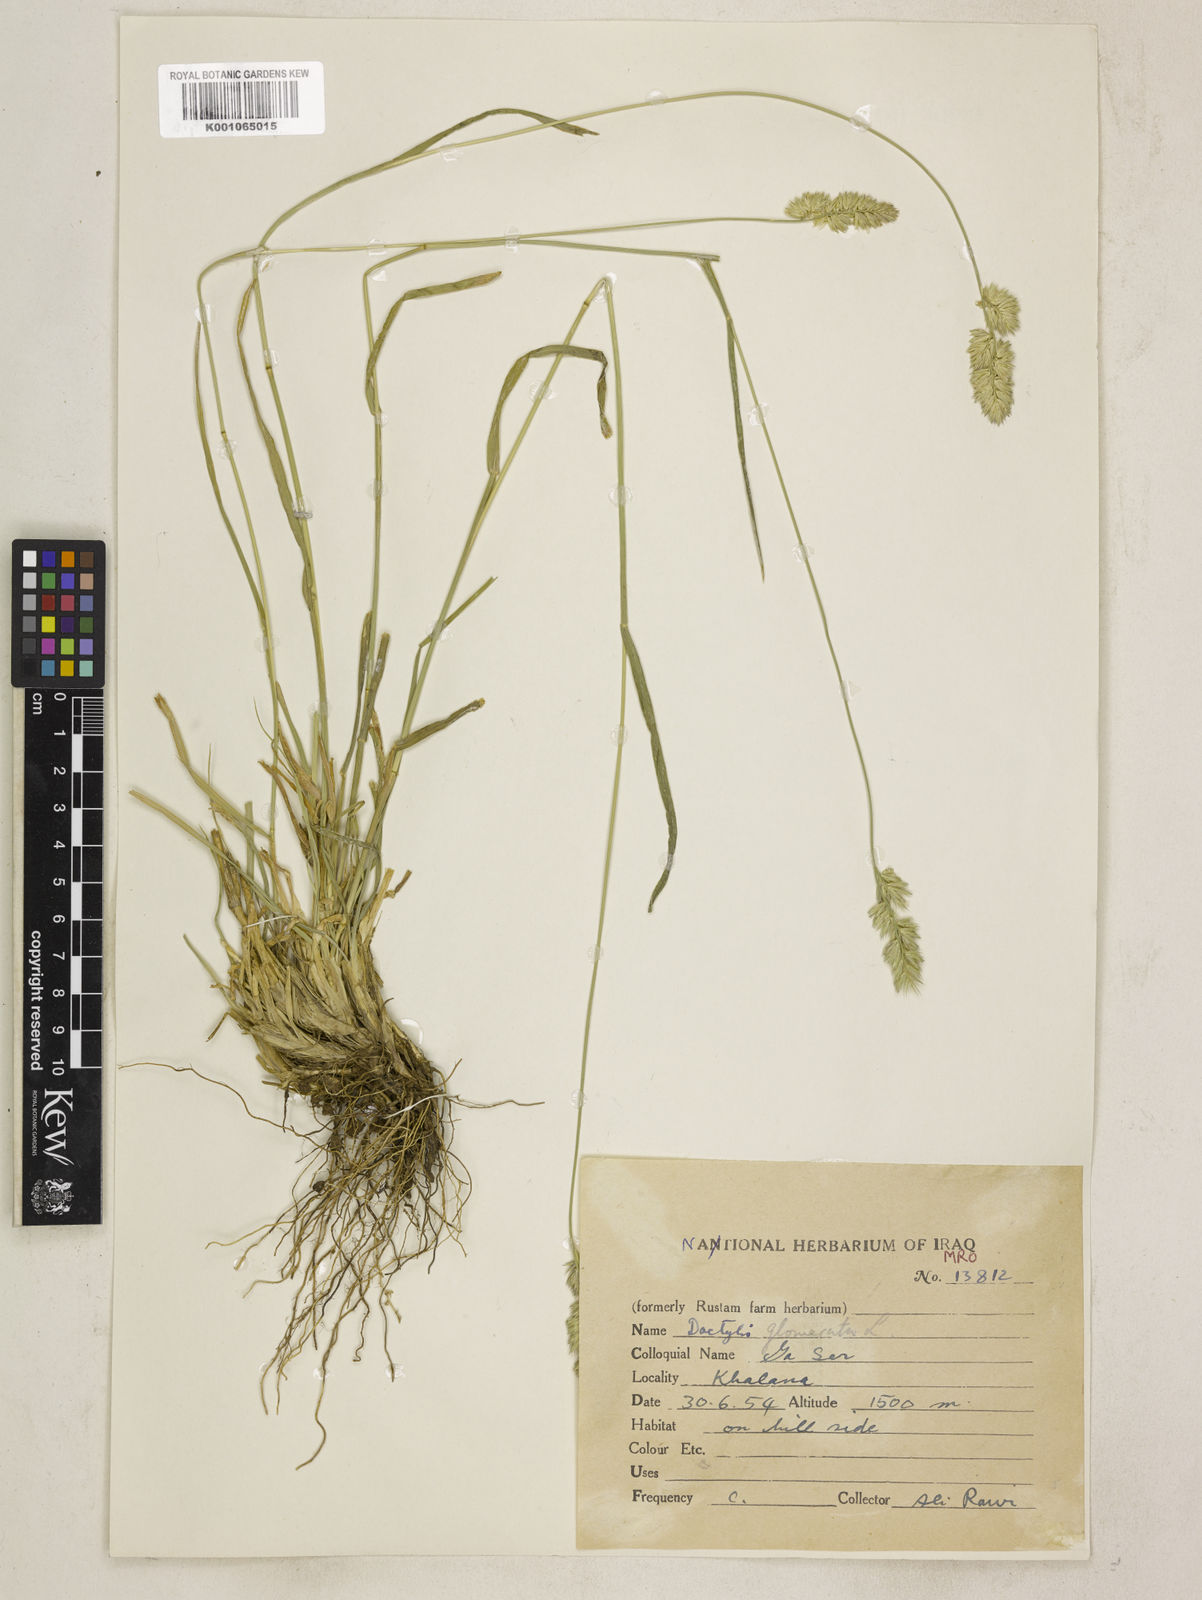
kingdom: Plantae
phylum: Tracheophyta
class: Liliopsida
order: Poales
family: Poaceae
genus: Dactylis
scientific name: Dactylis glomerata
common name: Orchardgrass
